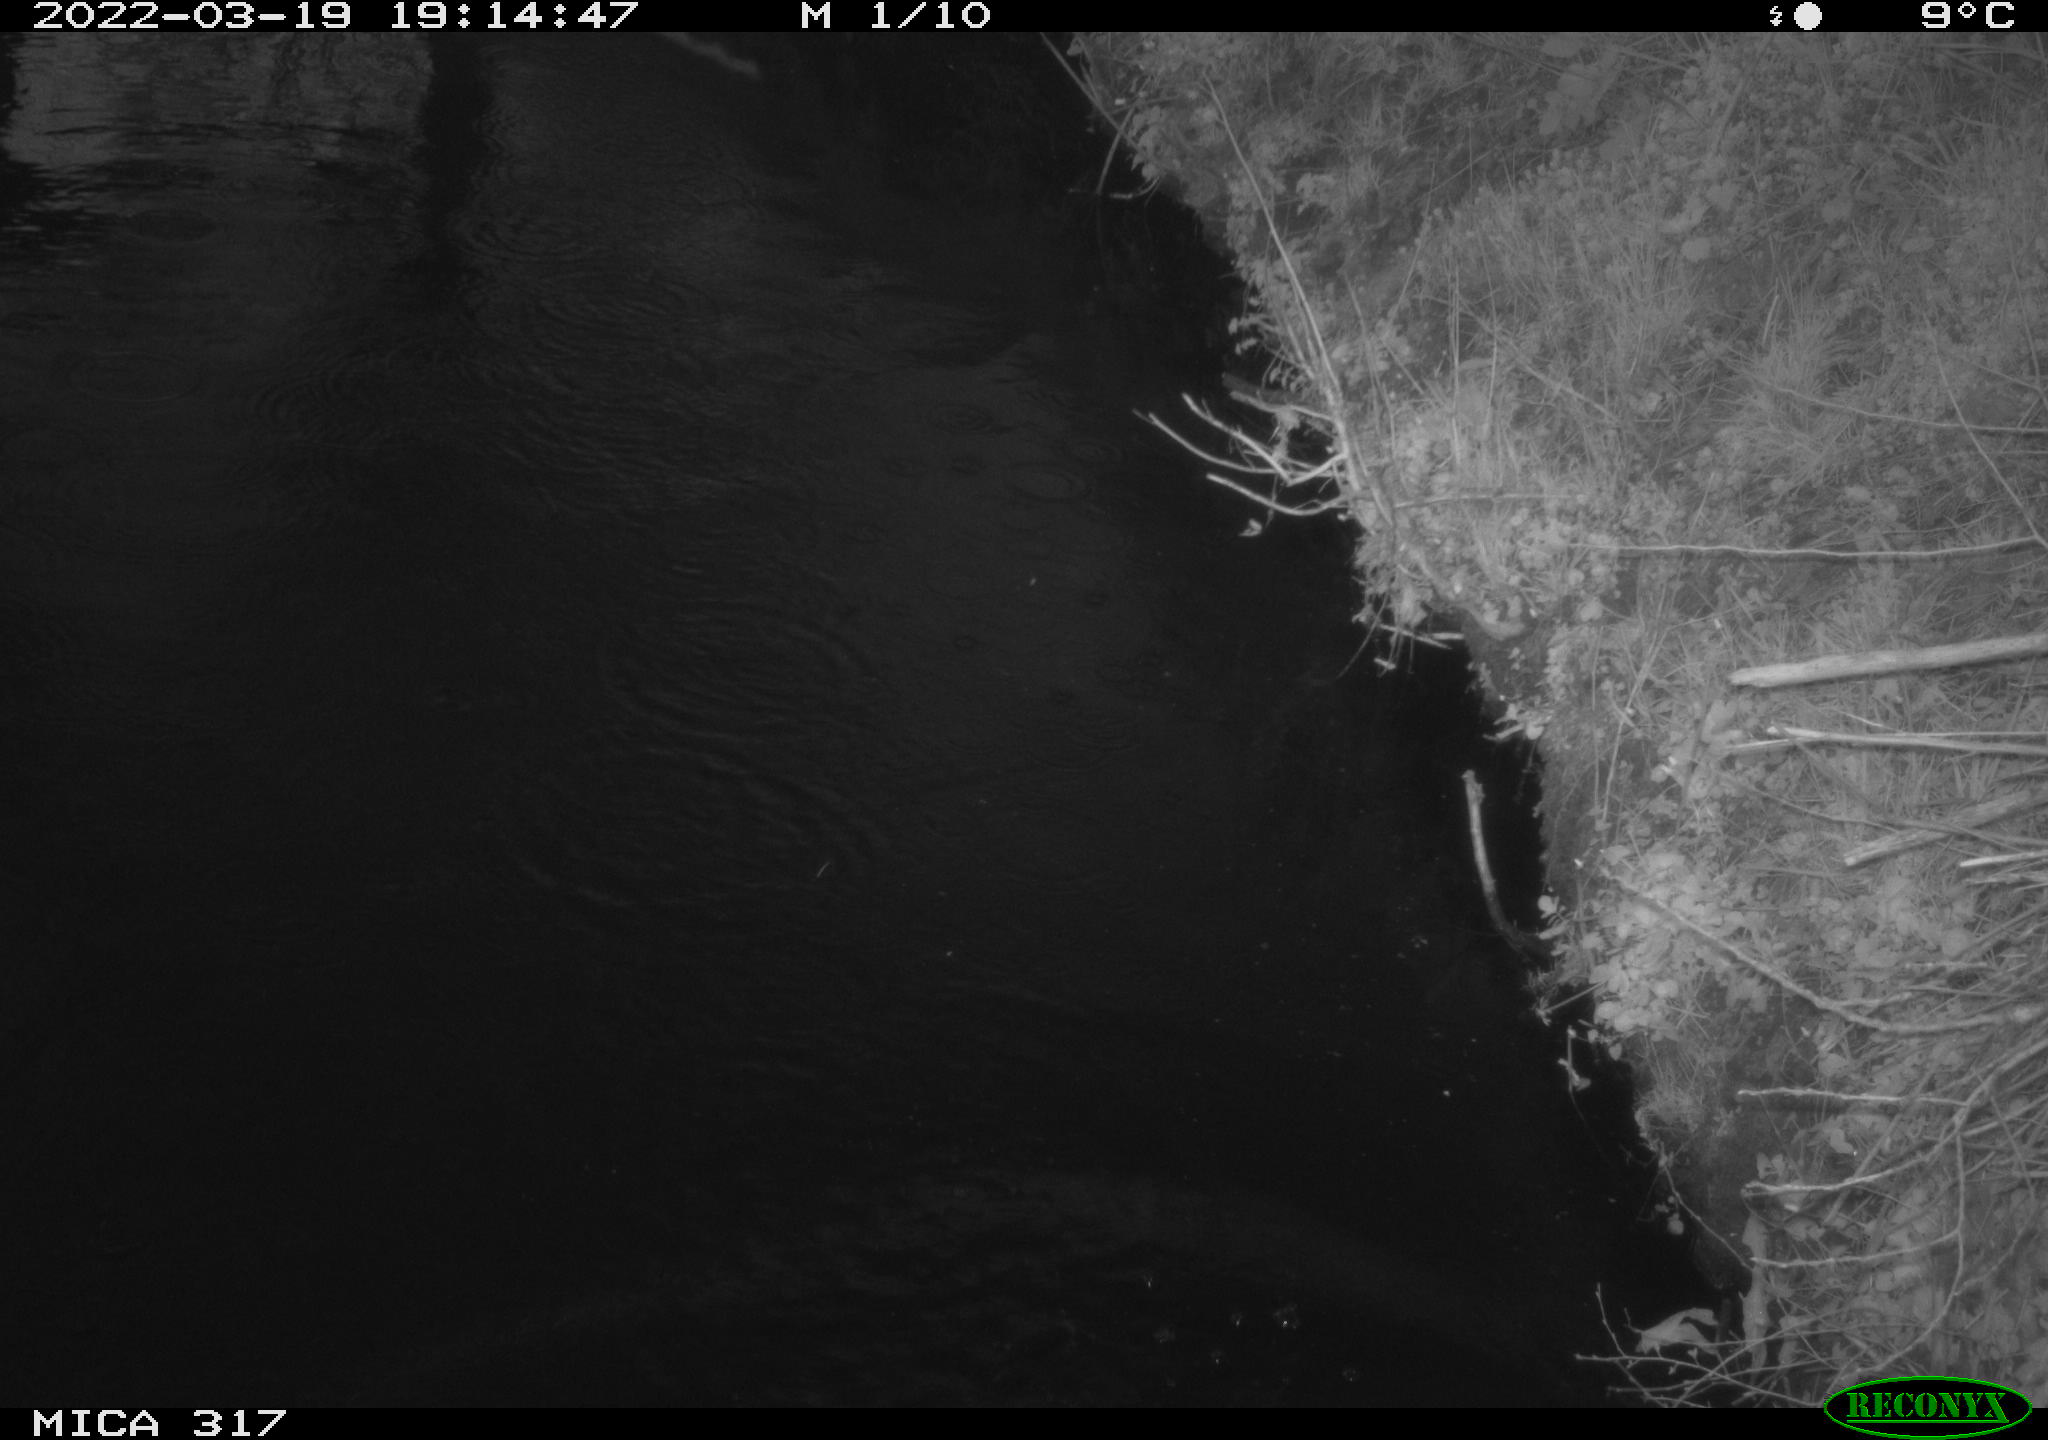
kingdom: Animalia
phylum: Chordata
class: Aves
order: Anseriformes
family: Anatidae
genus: Anas
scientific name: Anas platyrhynchos
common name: Mallard
